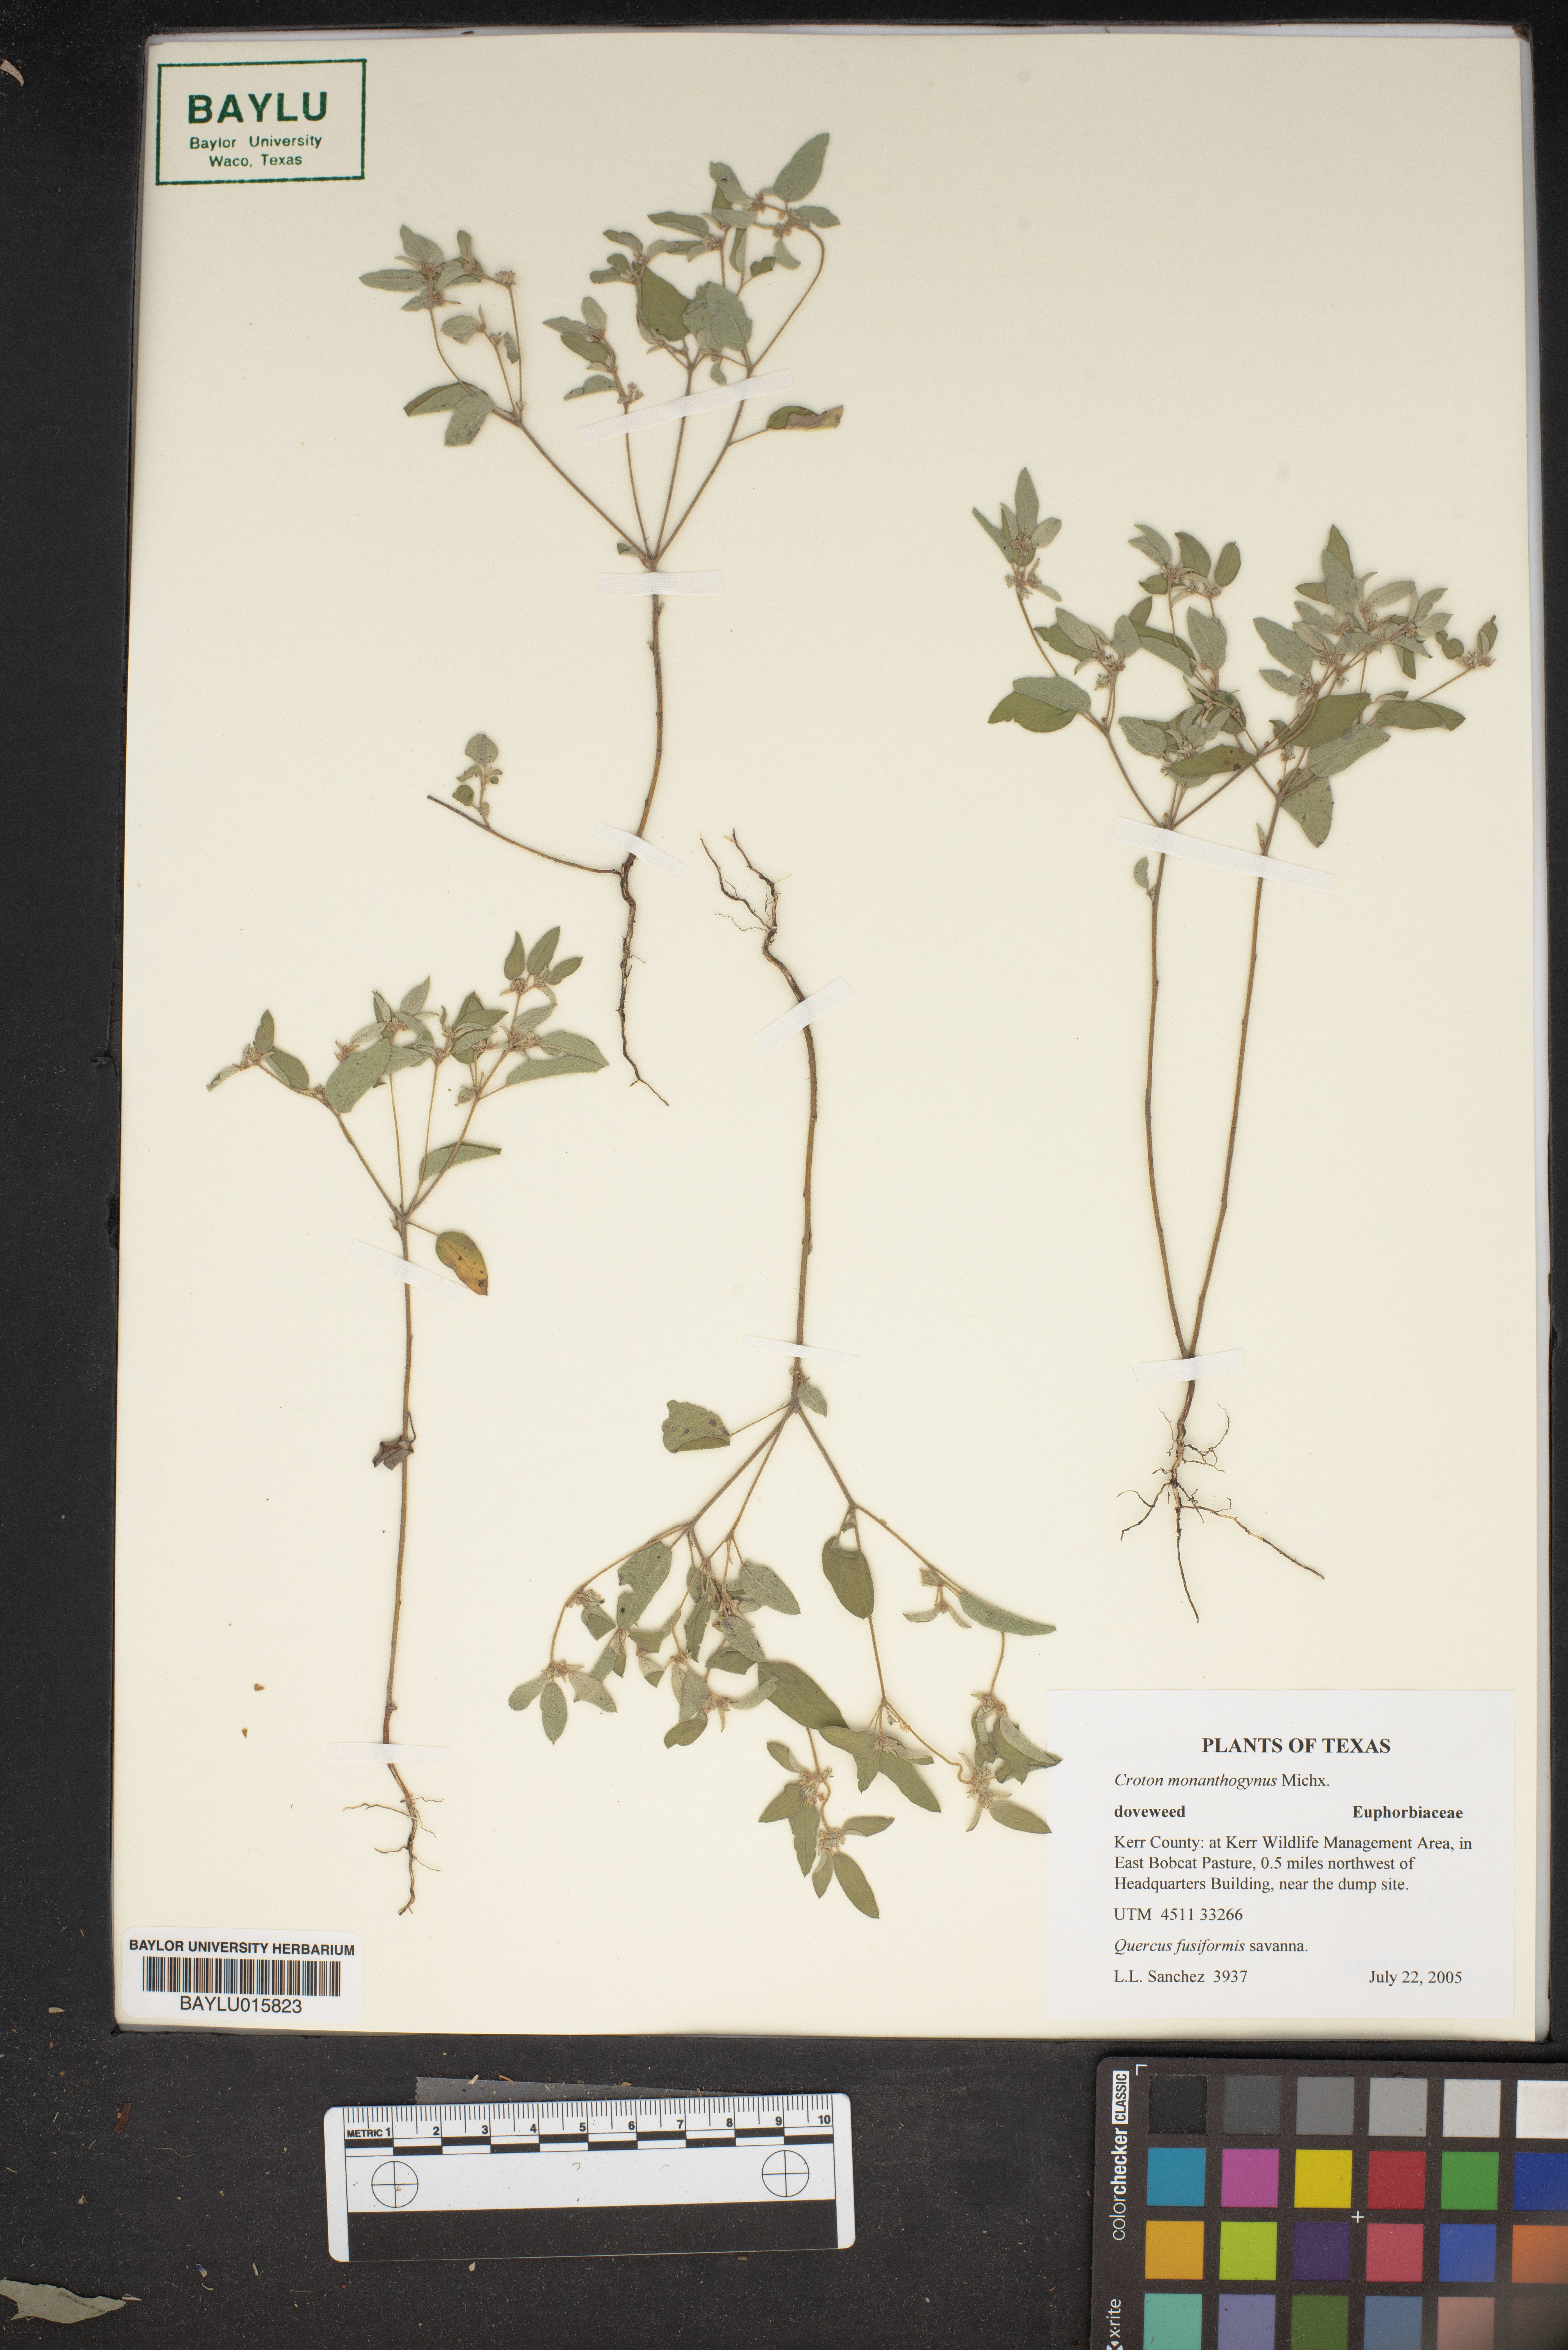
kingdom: Plantae
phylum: Tracheophyta
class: Magnoliopsida
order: Malpighiales
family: Euphorbiaceae
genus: Croton
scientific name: Croton monanthogynus
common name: One-seed croton
